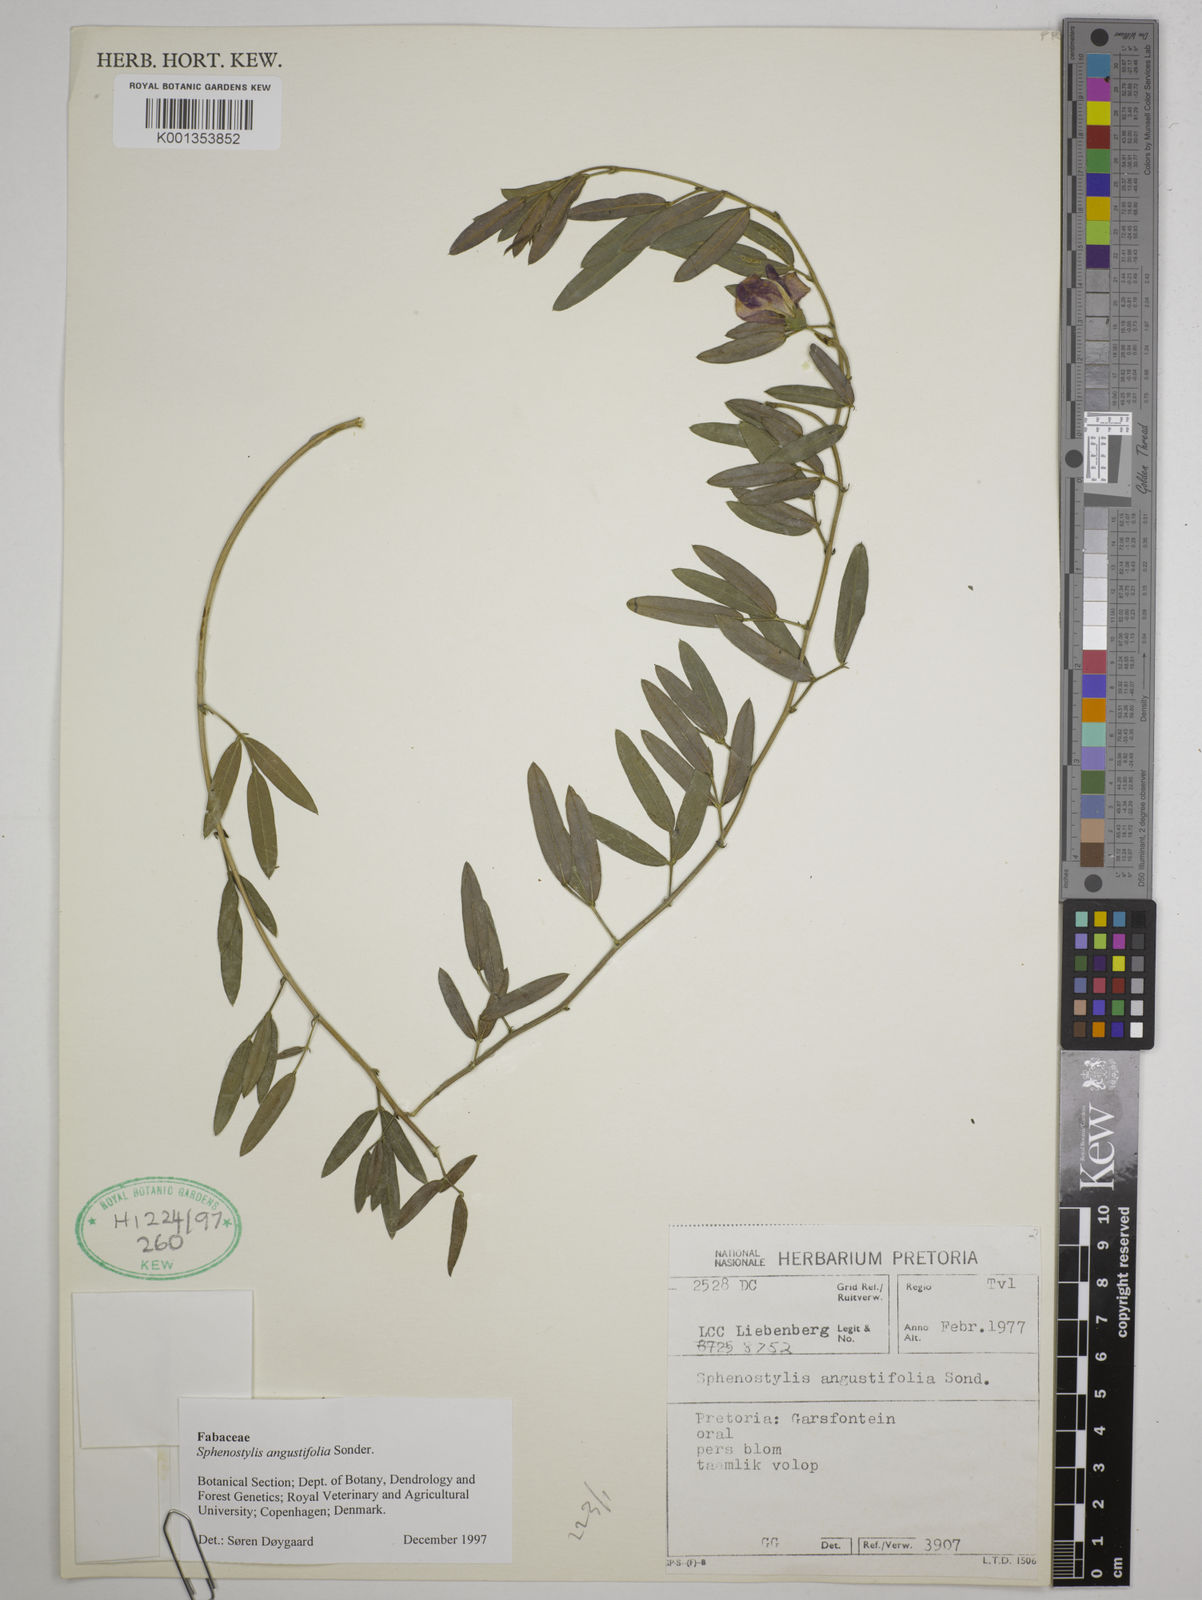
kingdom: Plantae
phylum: Tracheophyta
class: Magnoliopsida
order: Fabales
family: Fabaceae
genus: Sphenostylis
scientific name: Sphenostylis angustifolia
